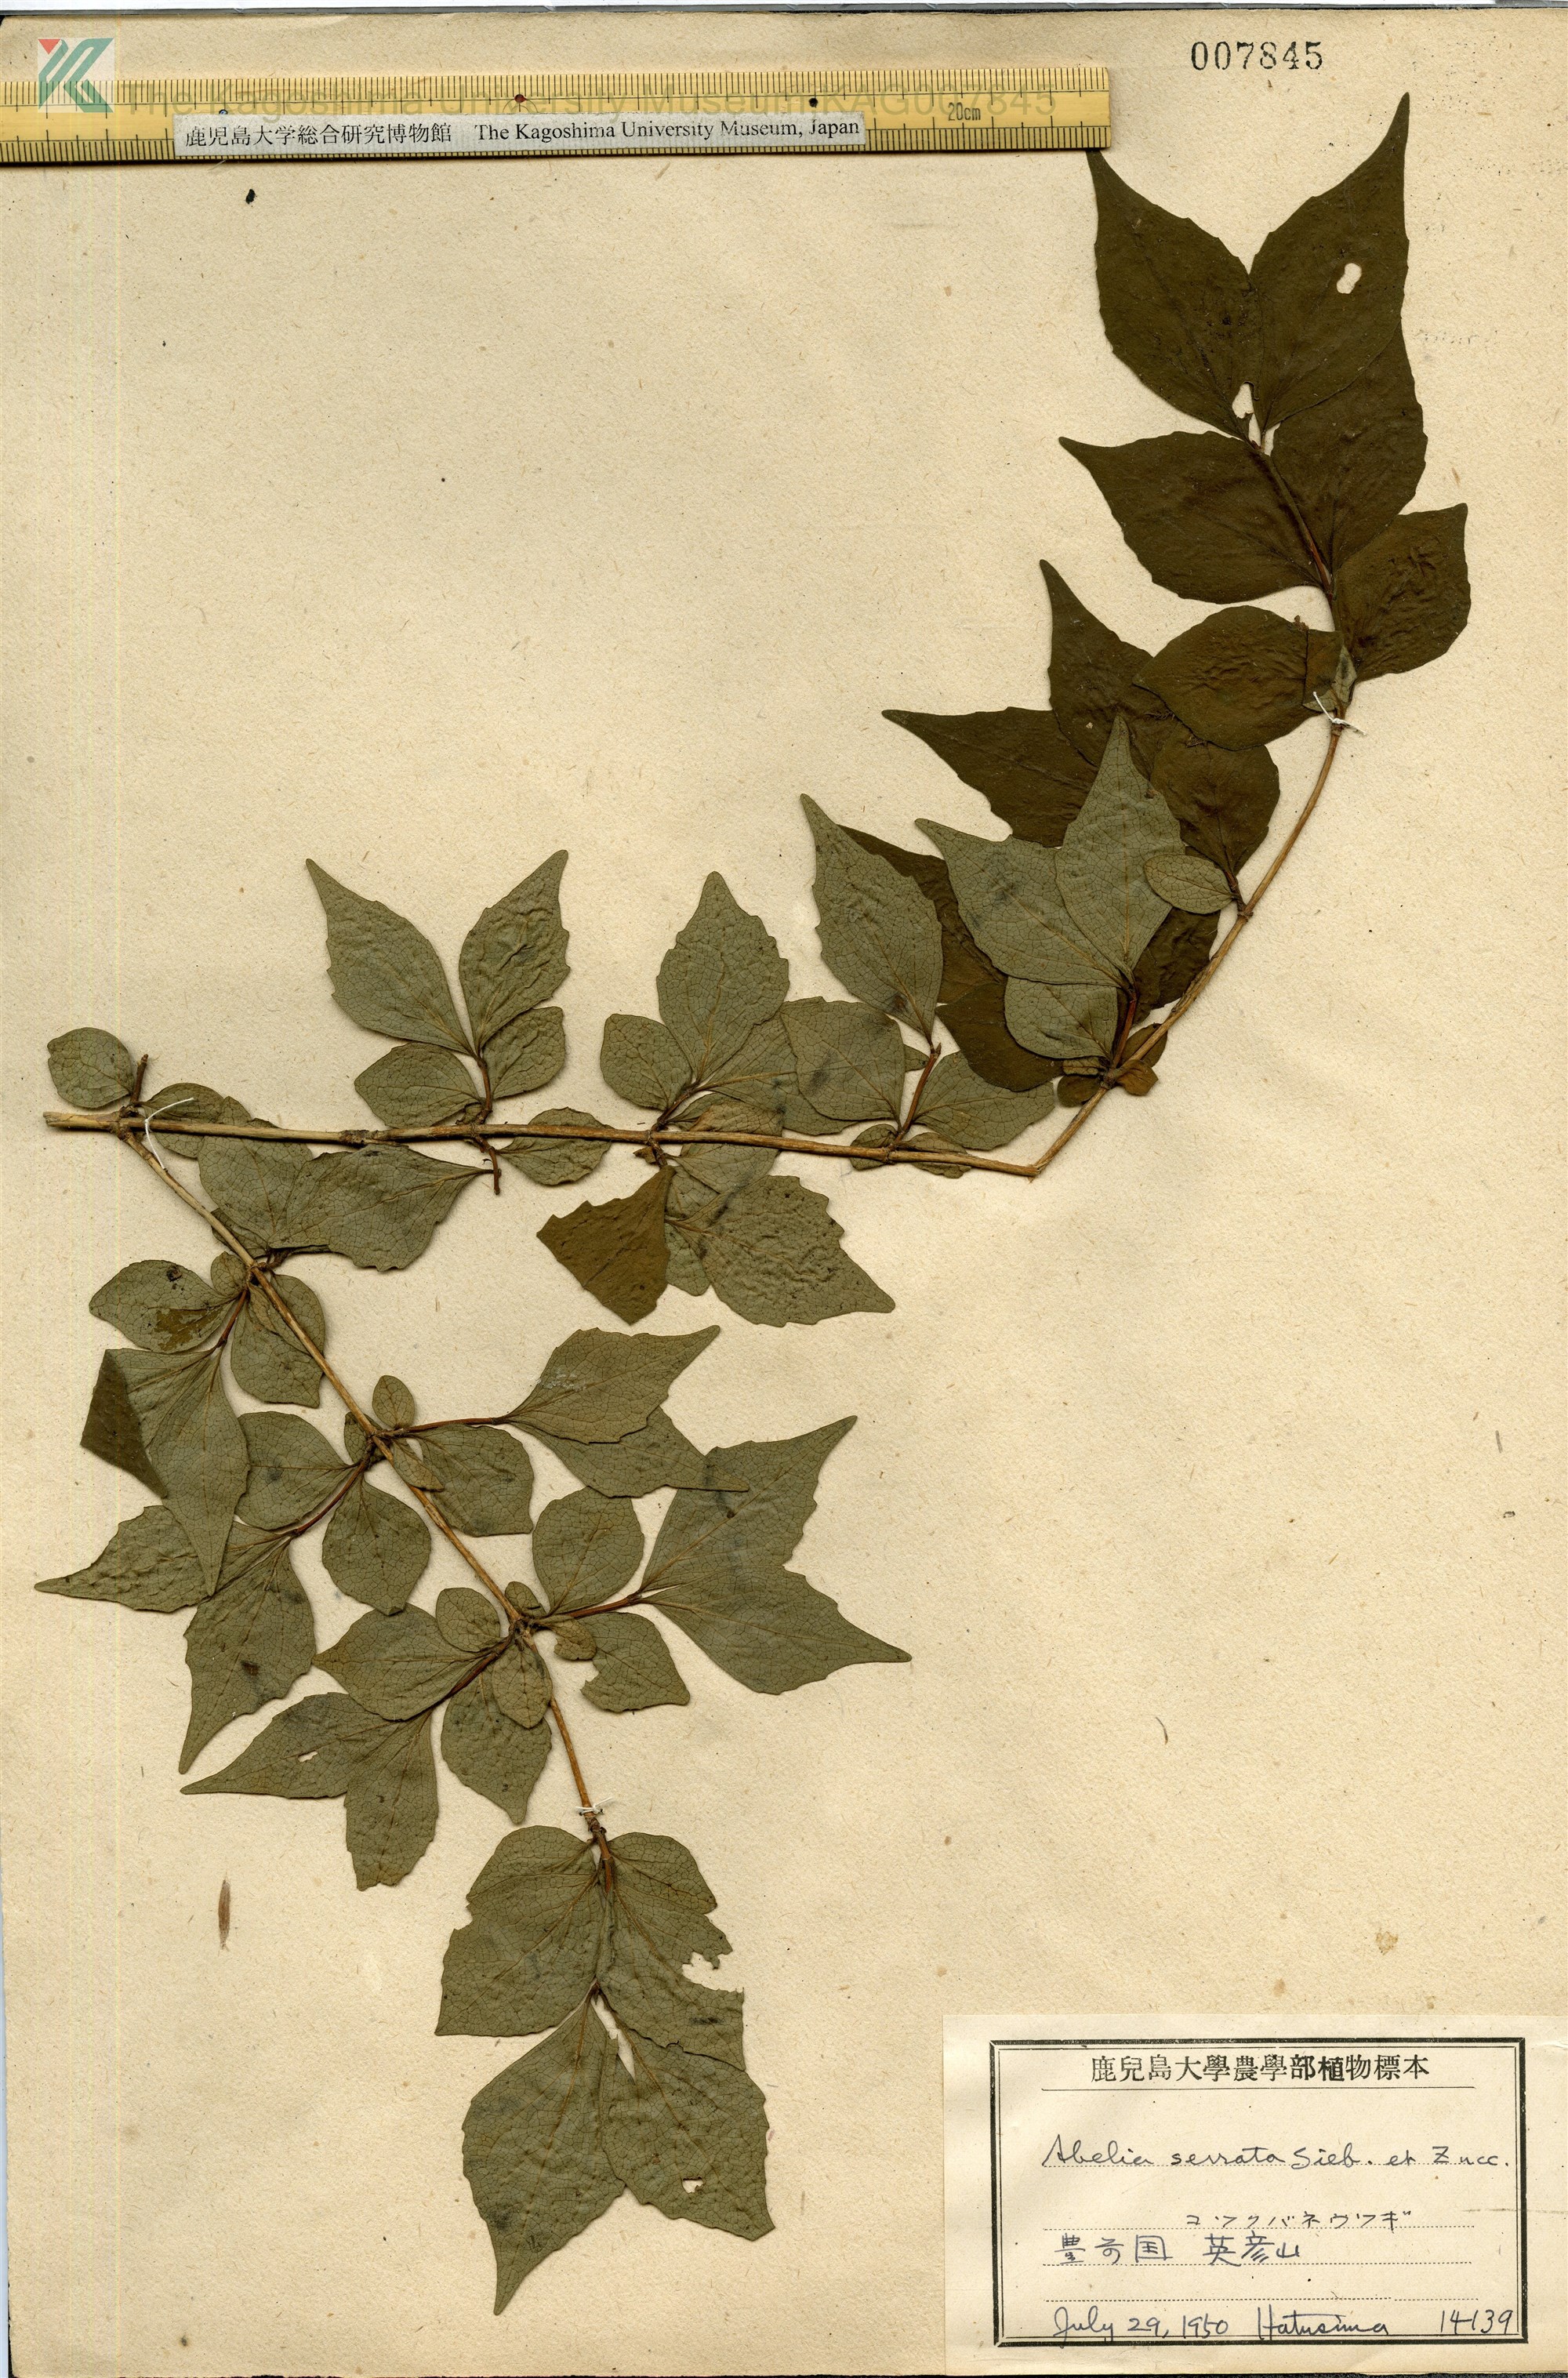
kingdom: Plantae
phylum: Tracheophyta
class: Magnoliopsida
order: Dipsacales
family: Caprifoliaceae
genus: Diabelia
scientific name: Diabelia serrata
